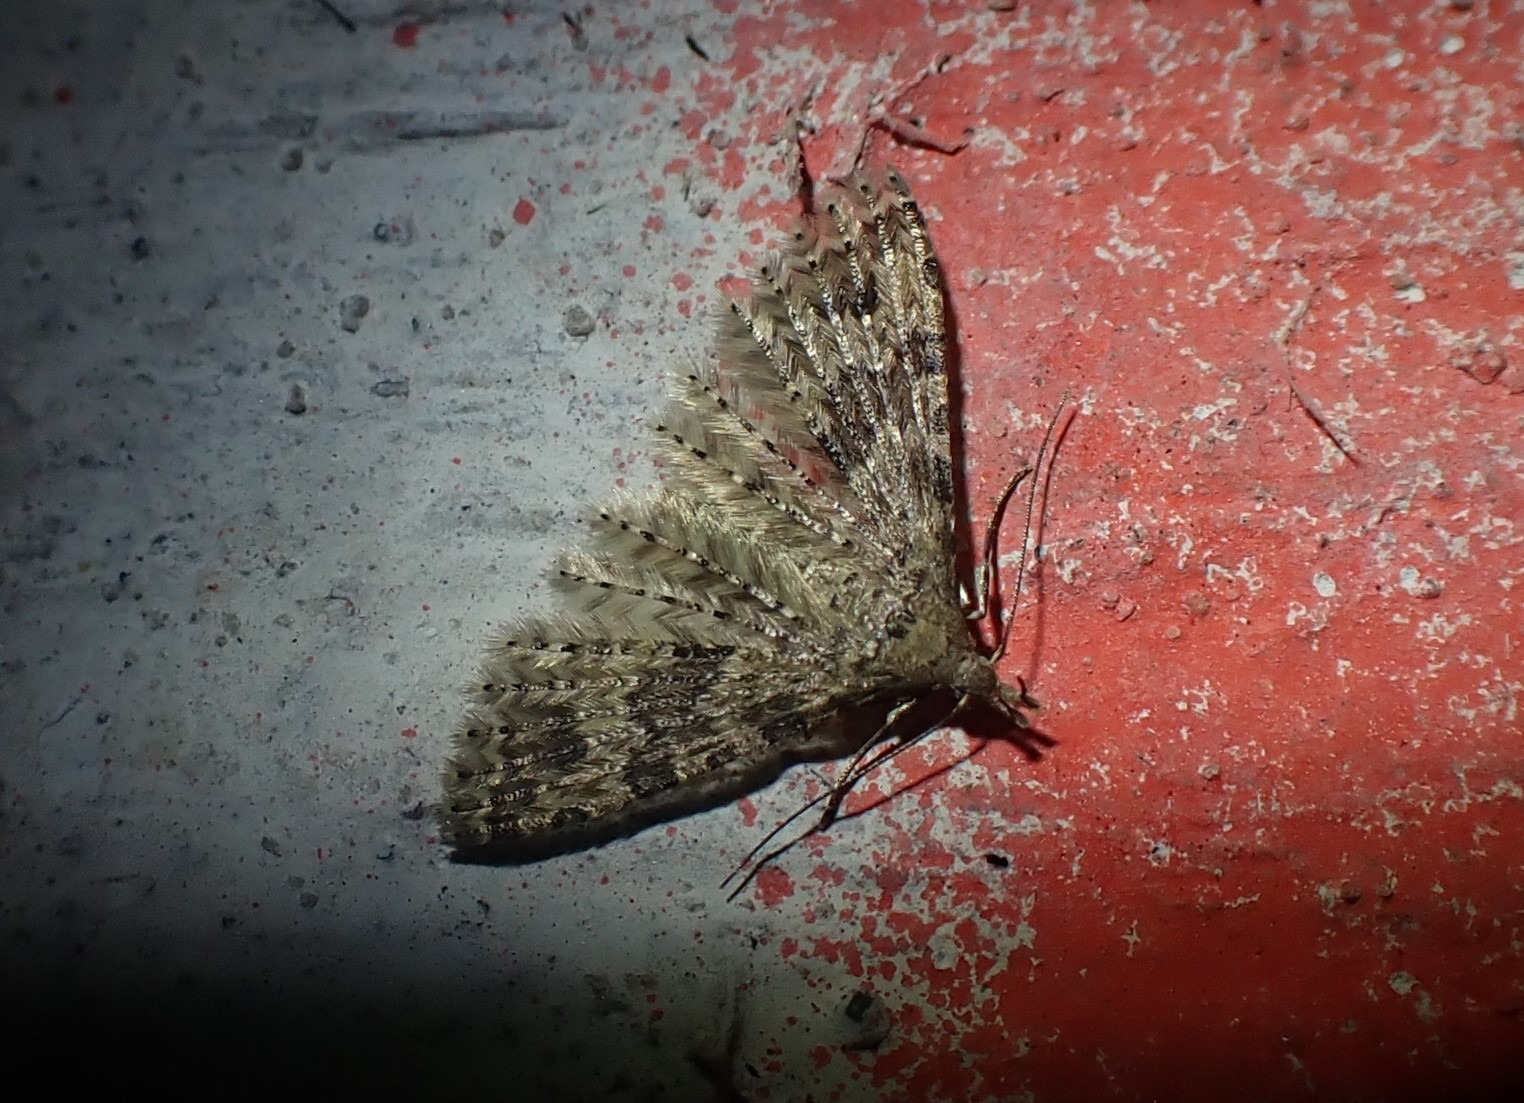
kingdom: Animalia
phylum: Arthropoda
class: Insecta
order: Lepidoptera
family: Alucitidae
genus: Alucita
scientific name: Alucita hexadactyla
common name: Kaprifoliefjermøl
